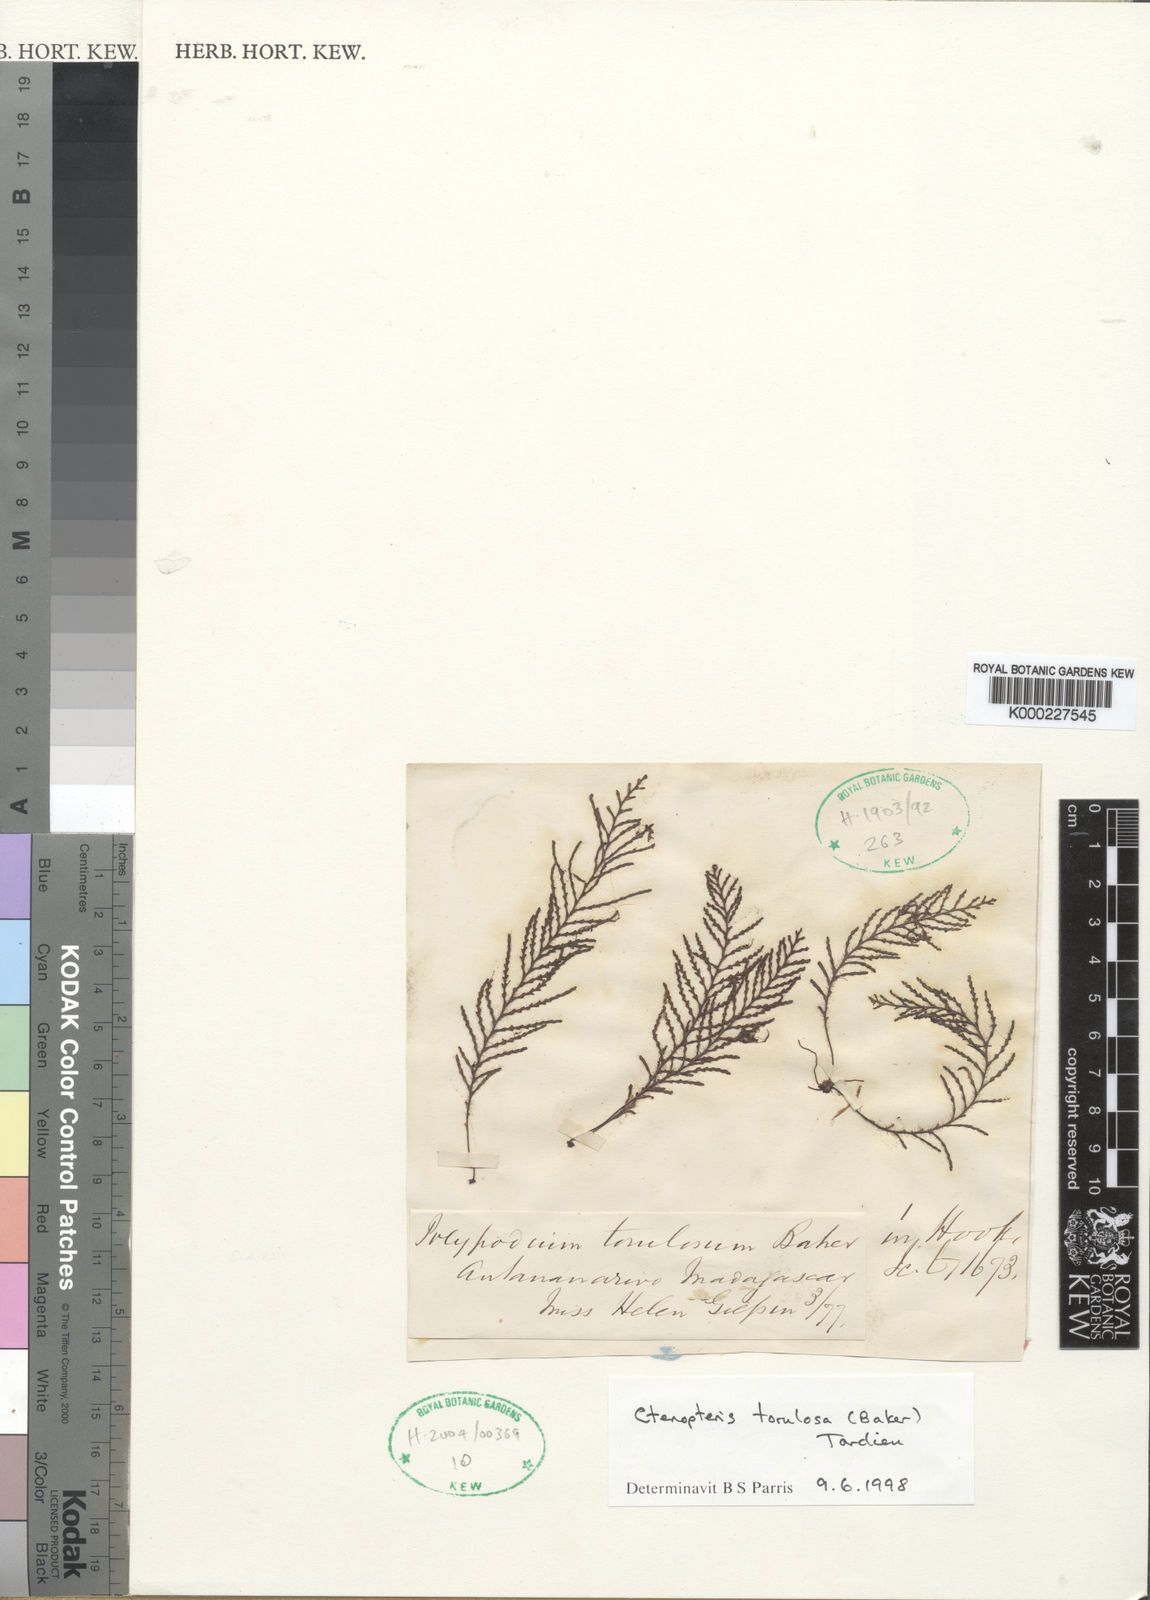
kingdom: Plantae
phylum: Tracheophyta
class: Polypodiopsida
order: Polypodiales
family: Polypodiaceae
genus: Enterosora
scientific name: Enterosora torulosa
